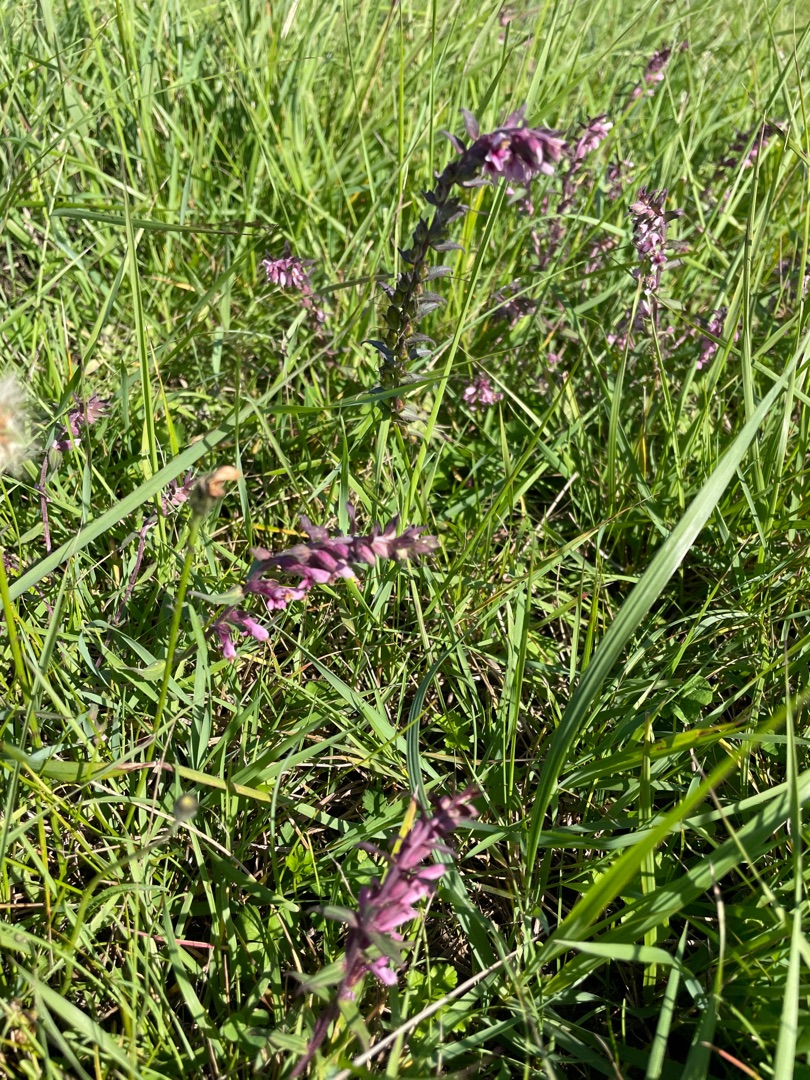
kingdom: Plantae
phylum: Tracheophyta
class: Magnoliopsida
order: Lamiales
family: Orobanchaceae
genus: Odontites
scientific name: Odontites vernus
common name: Mark-rødtop
